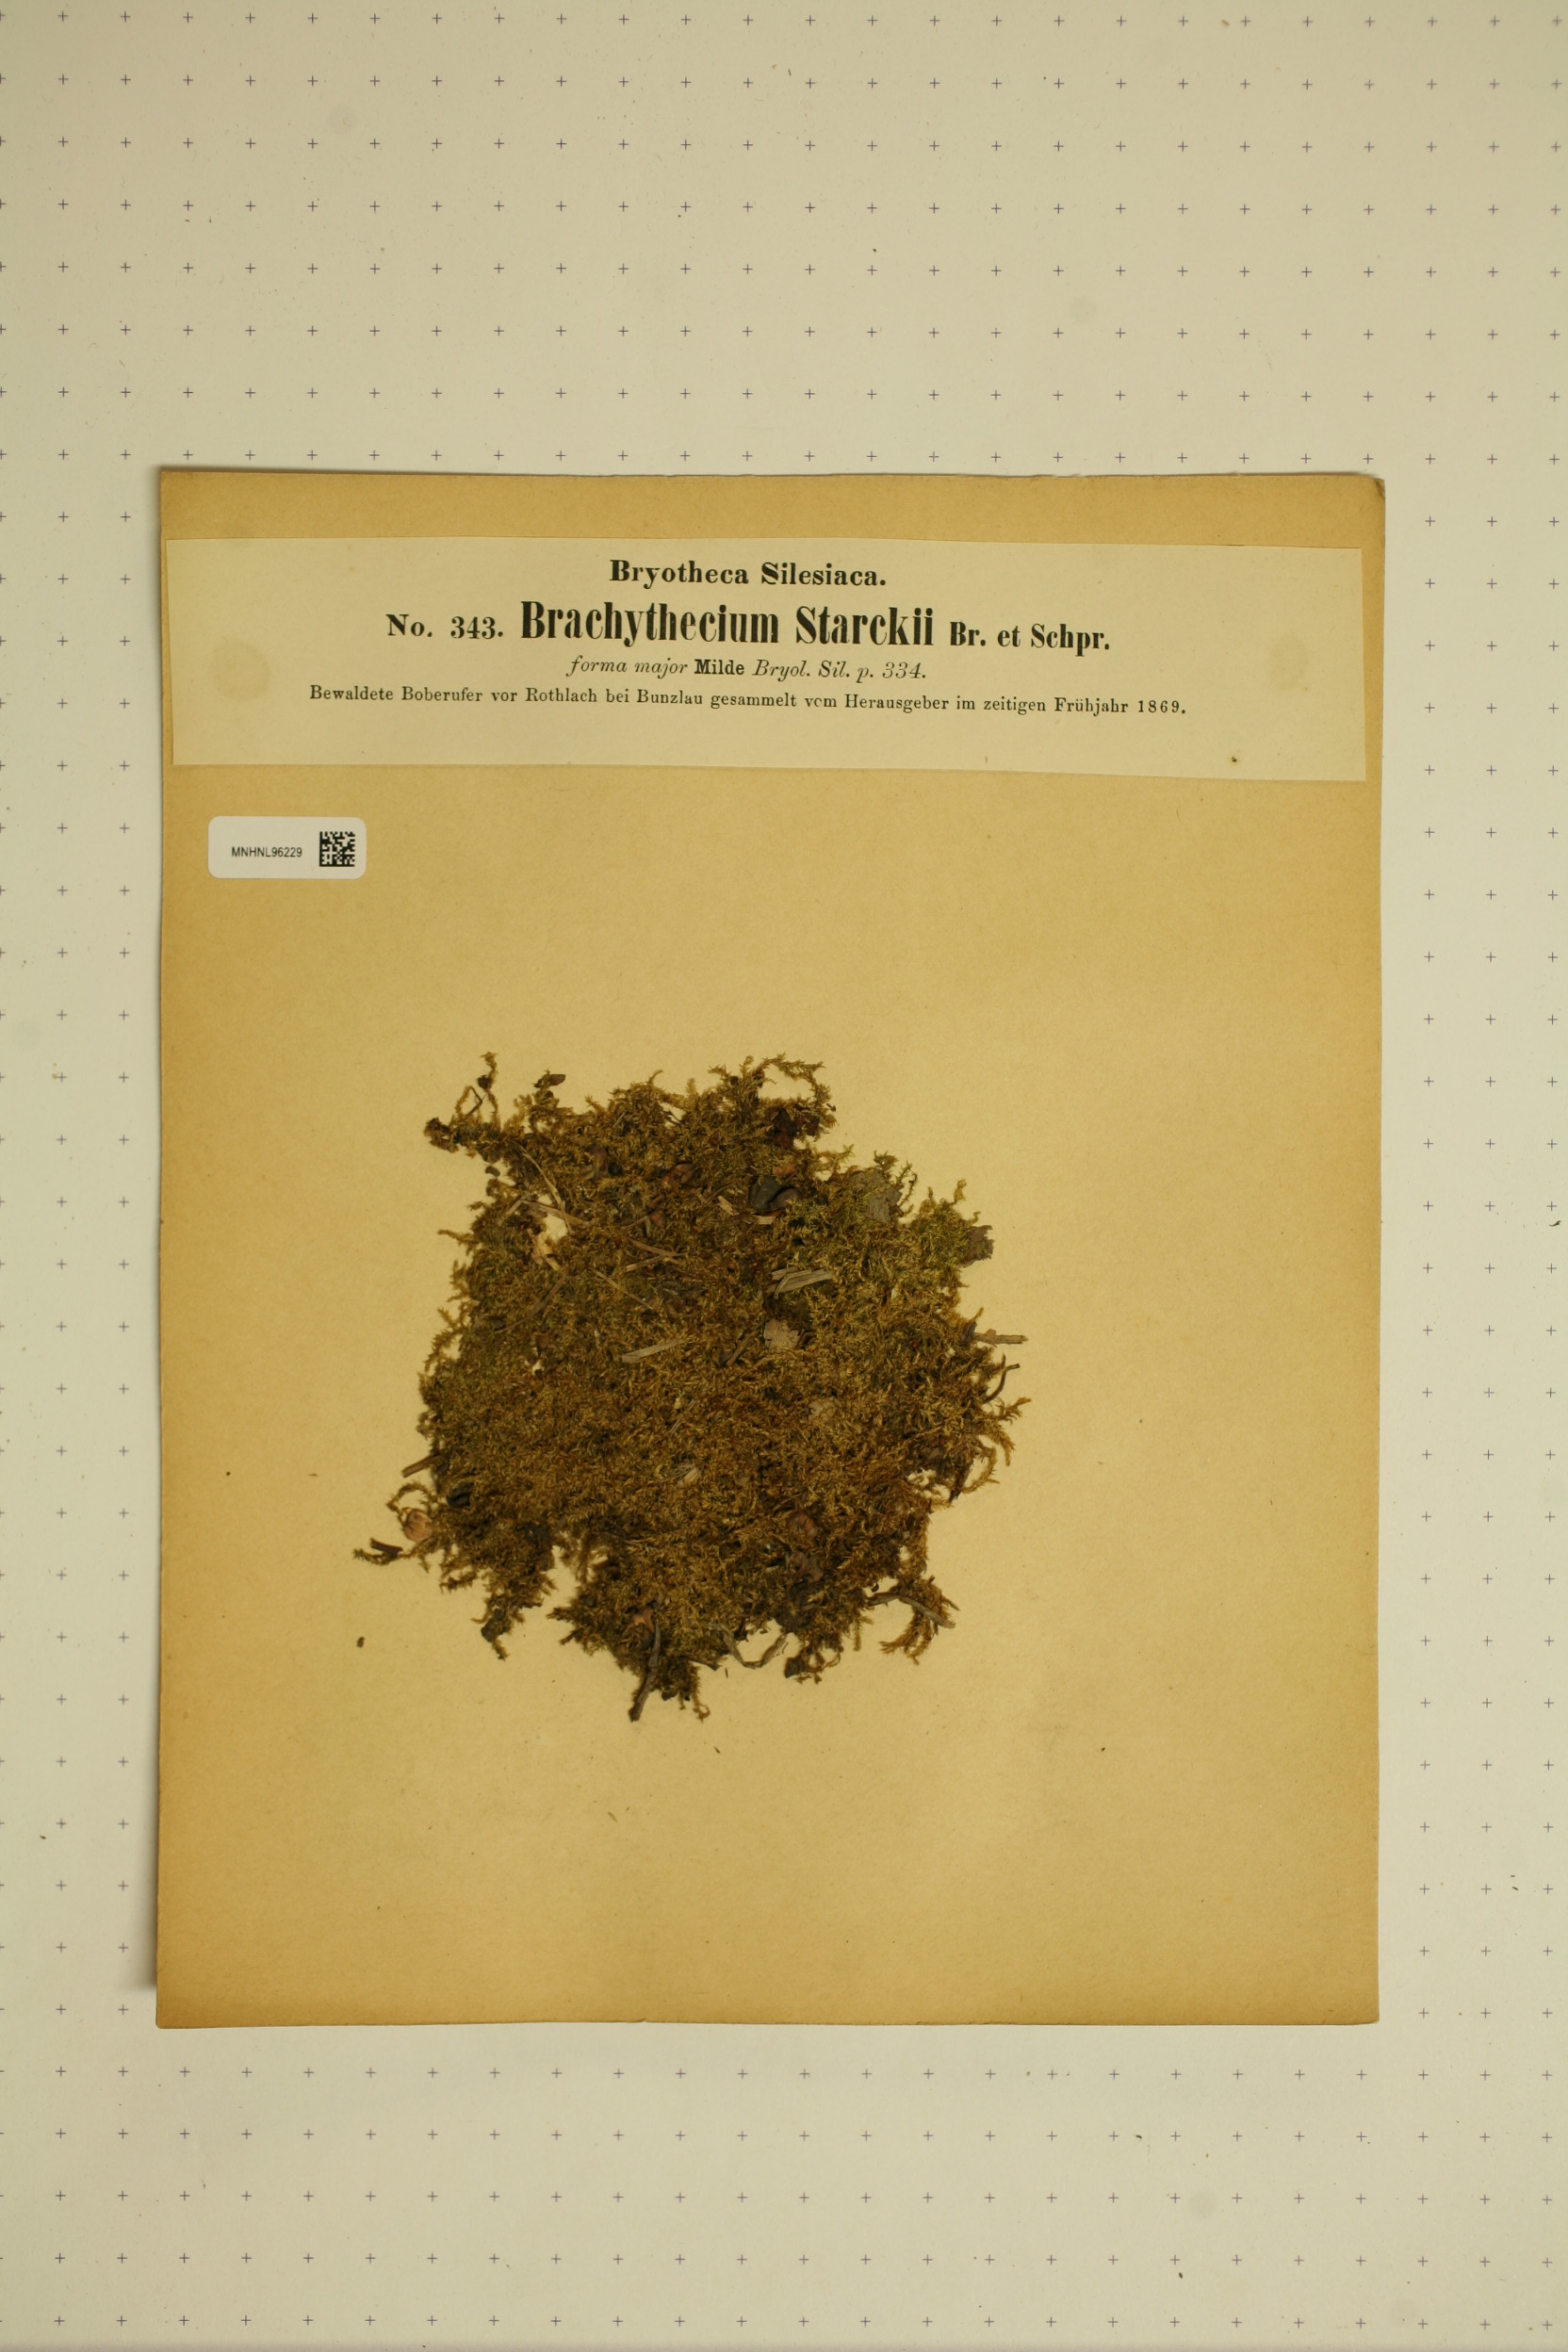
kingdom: Plantae
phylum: Bryophyta
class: Bryopsida
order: Hypnales
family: Brachytheciaceae
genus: Sciuro-hypnum
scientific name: Sciuro-hypnum starkei
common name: Starke's feather-moss
